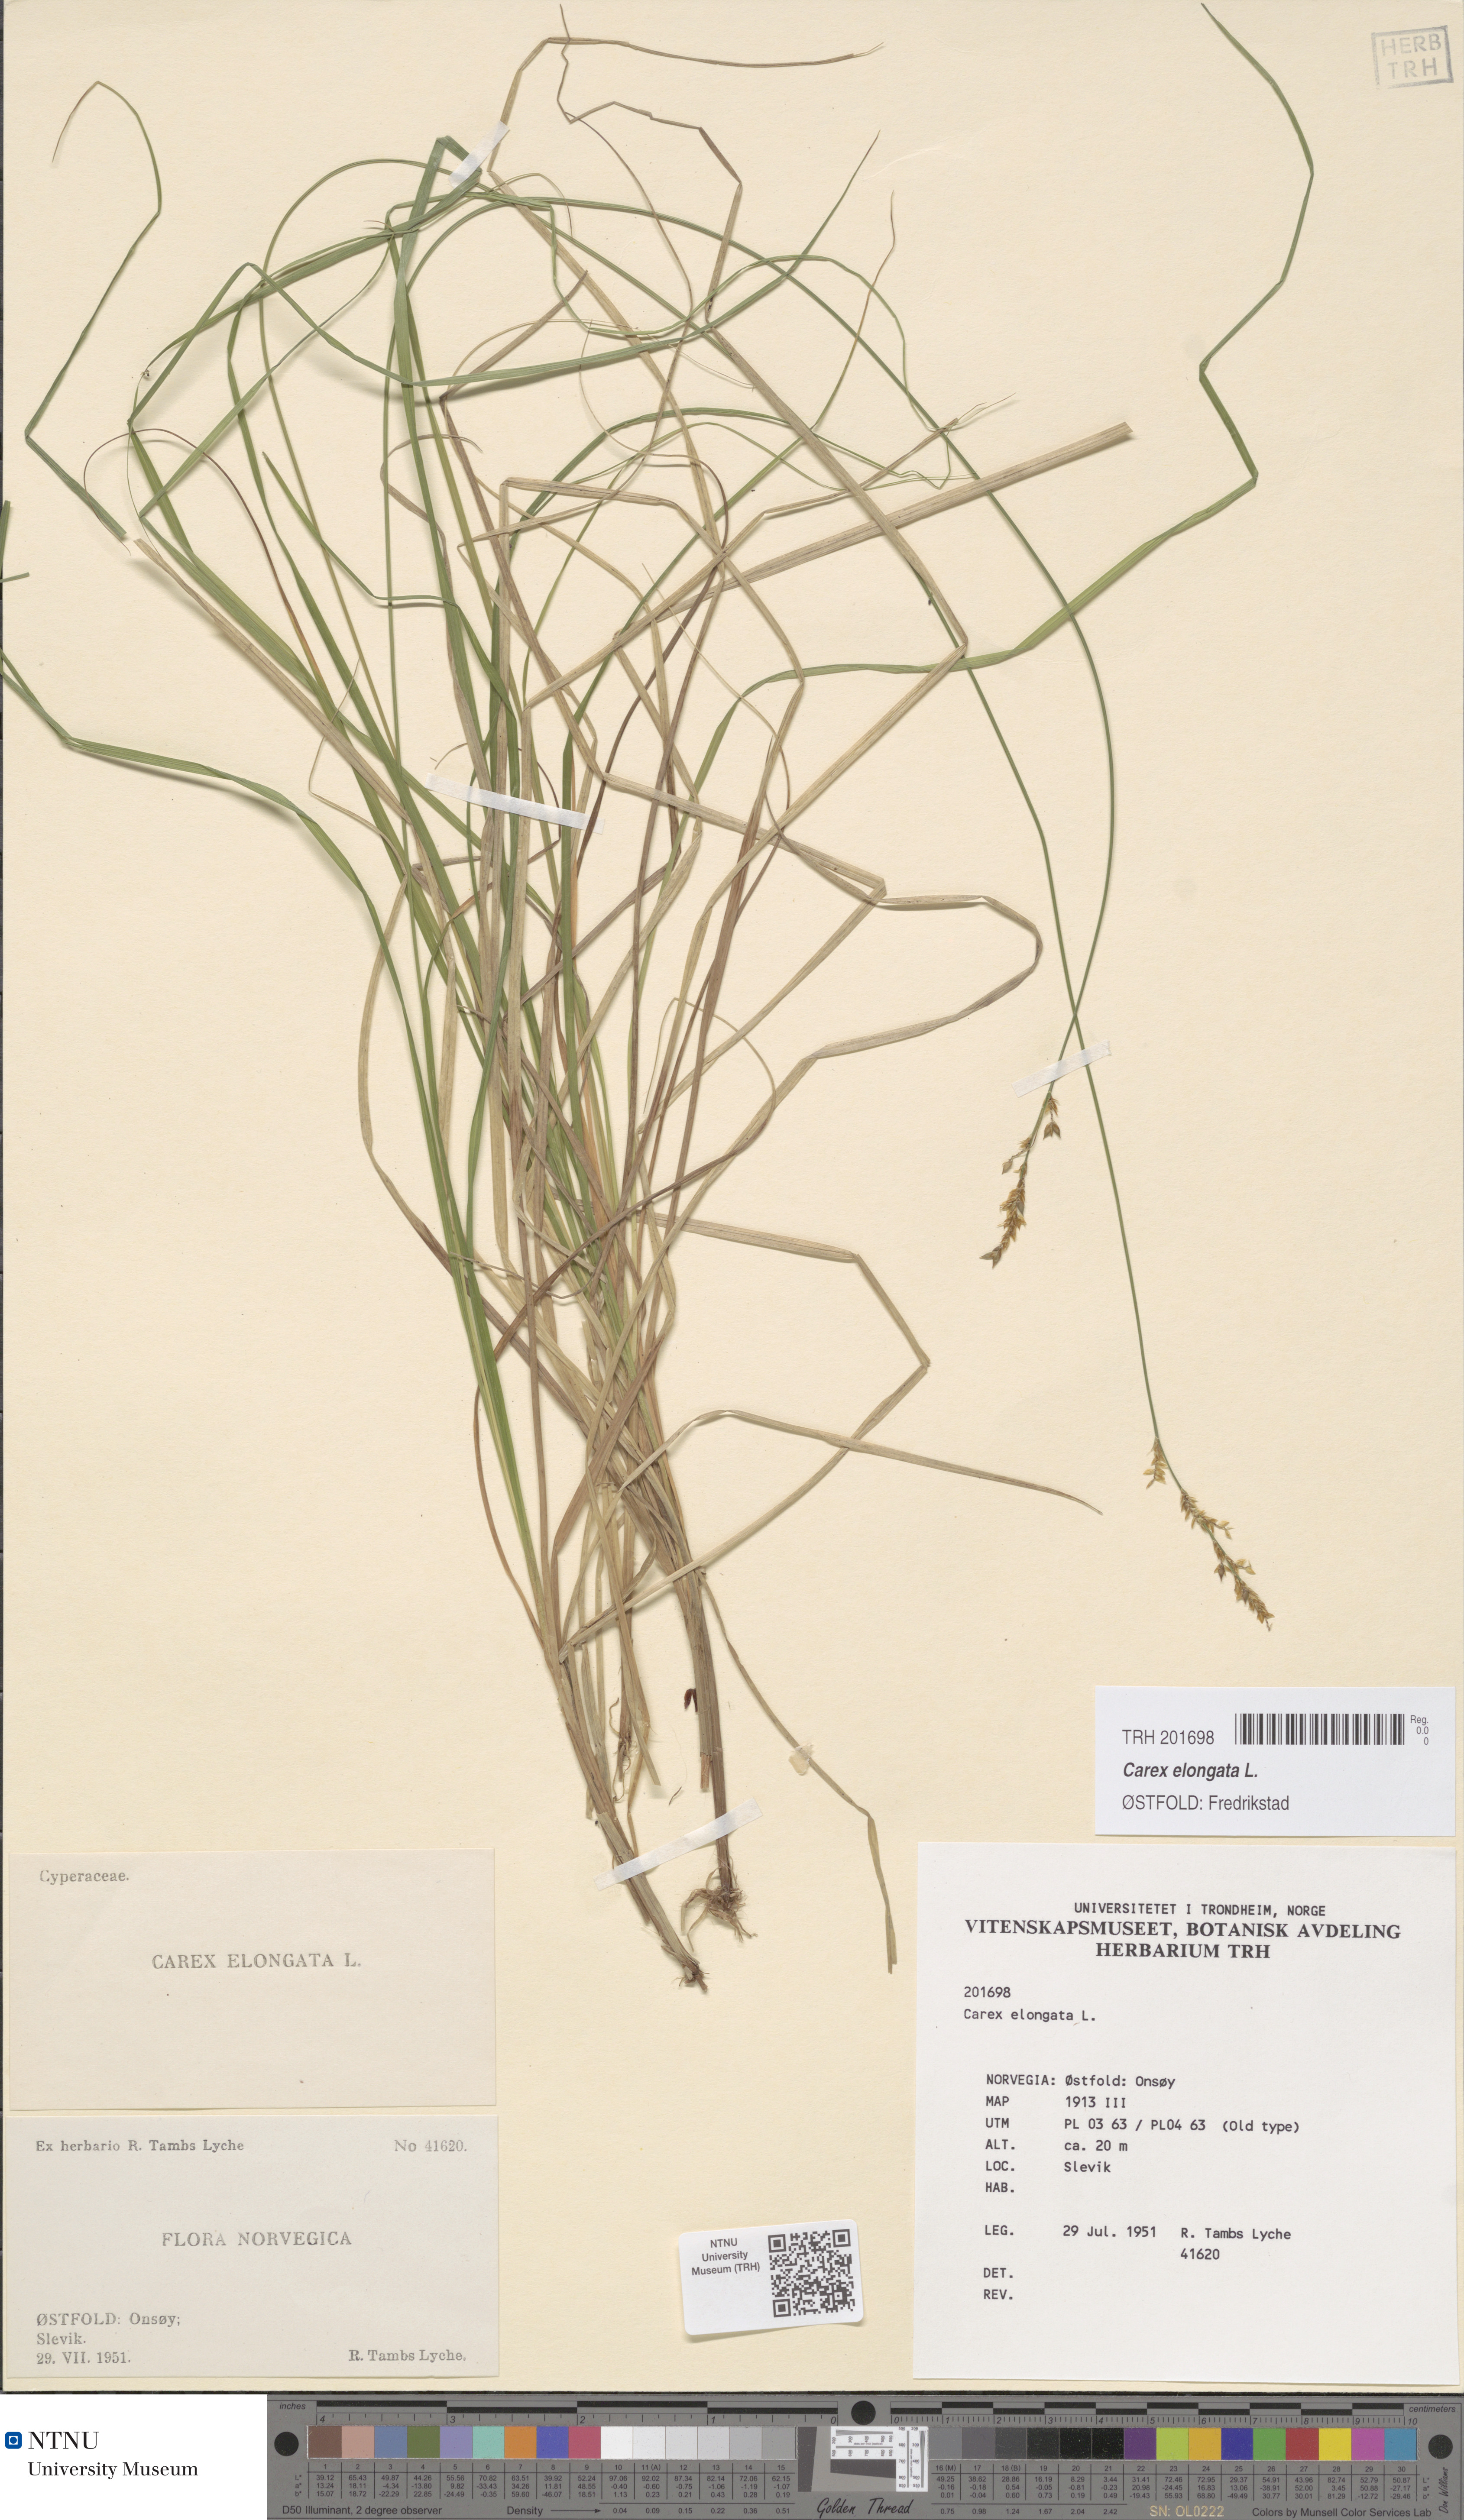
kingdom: Plantae
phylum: Tracheophyta
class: Liliopsida
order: Poales
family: Cyperaceae
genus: Carex
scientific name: Carex elongata
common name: Elongated sedge
